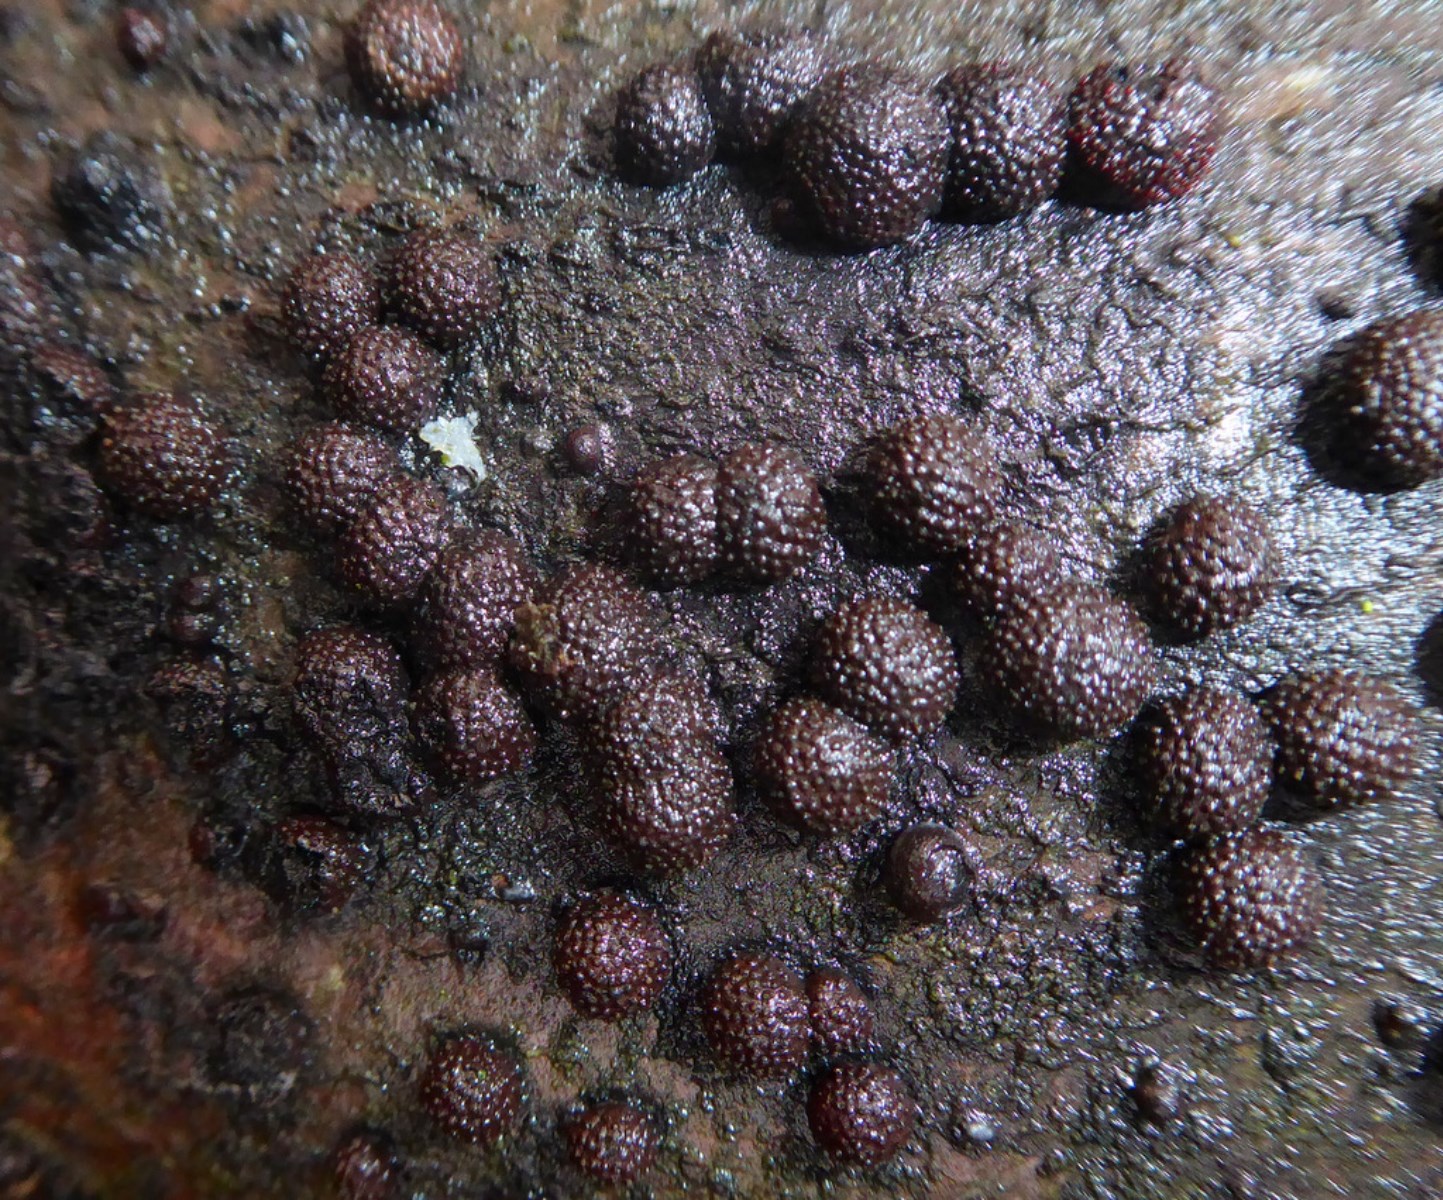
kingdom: Fungi
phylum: Ascomycota
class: Sordariomycetes
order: Xylariales
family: Hypoxylaceae
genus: Hypoxylon
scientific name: Hypoxylon fragiforme
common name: kuljordbær
